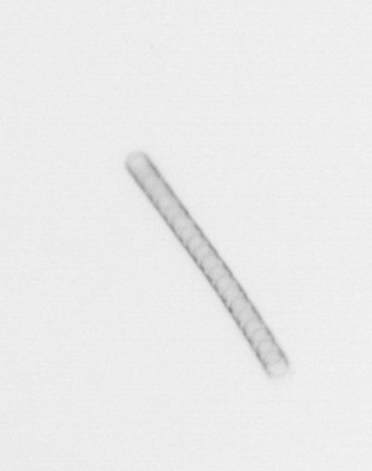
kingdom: Chromista
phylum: Ochrophyta
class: Bacillariophyceae
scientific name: Bacillariophyceae
